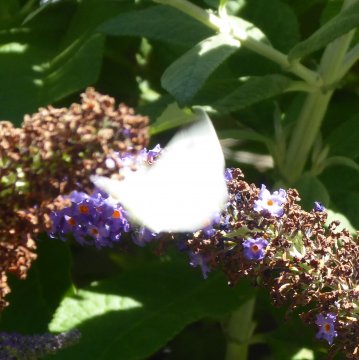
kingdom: Animalia
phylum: Arthropoda
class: Insecta
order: Lepidoptera
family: Pieridae
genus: Pieris
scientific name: Pieris rapae
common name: Cabbage White
